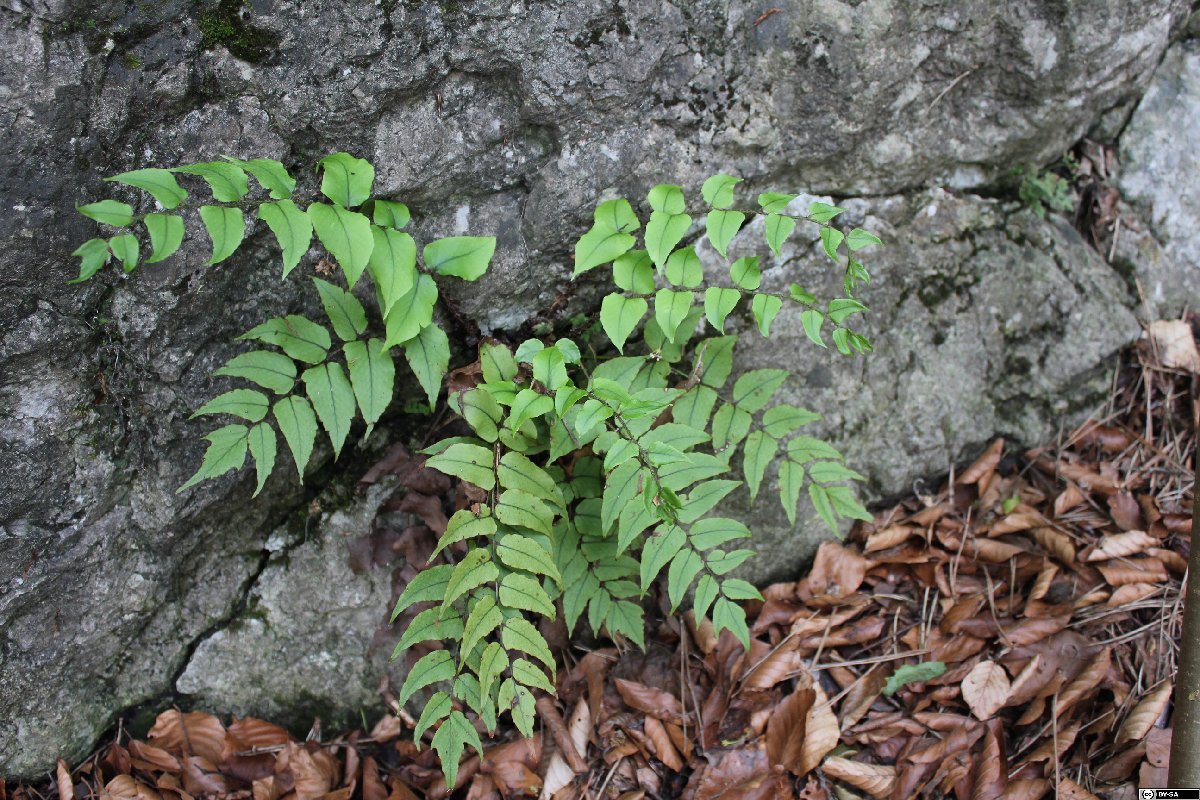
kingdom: Plantae
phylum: Tracheophyta
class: Polypodiopsida
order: Polypodiales
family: Dryopteridaceae
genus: Cyrtomium
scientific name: Cyrtomium fortunei
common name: Asian netvein hollyfern
